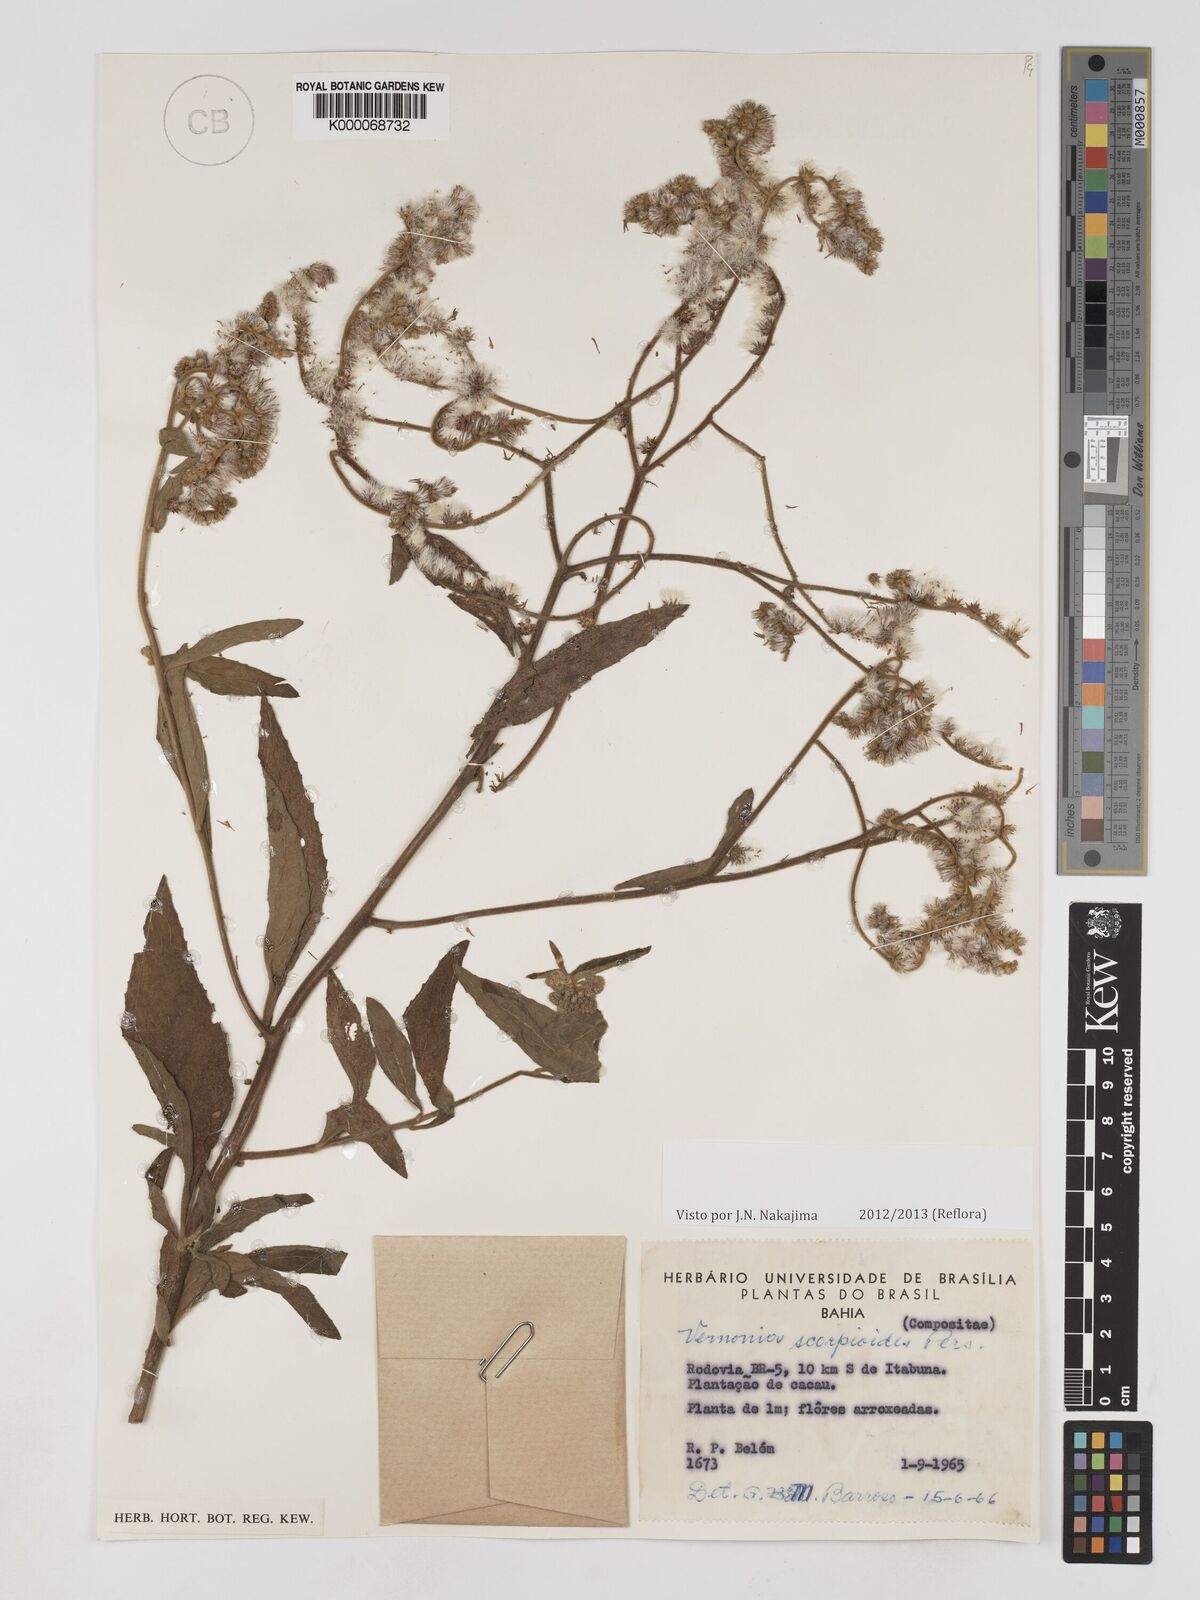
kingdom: Plantae
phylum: Tracheophyta
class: Magnoliopsida
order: Asterales
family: Asteraceae
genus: Cyrtocymura
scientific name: Cyrtocymura scorpioides
